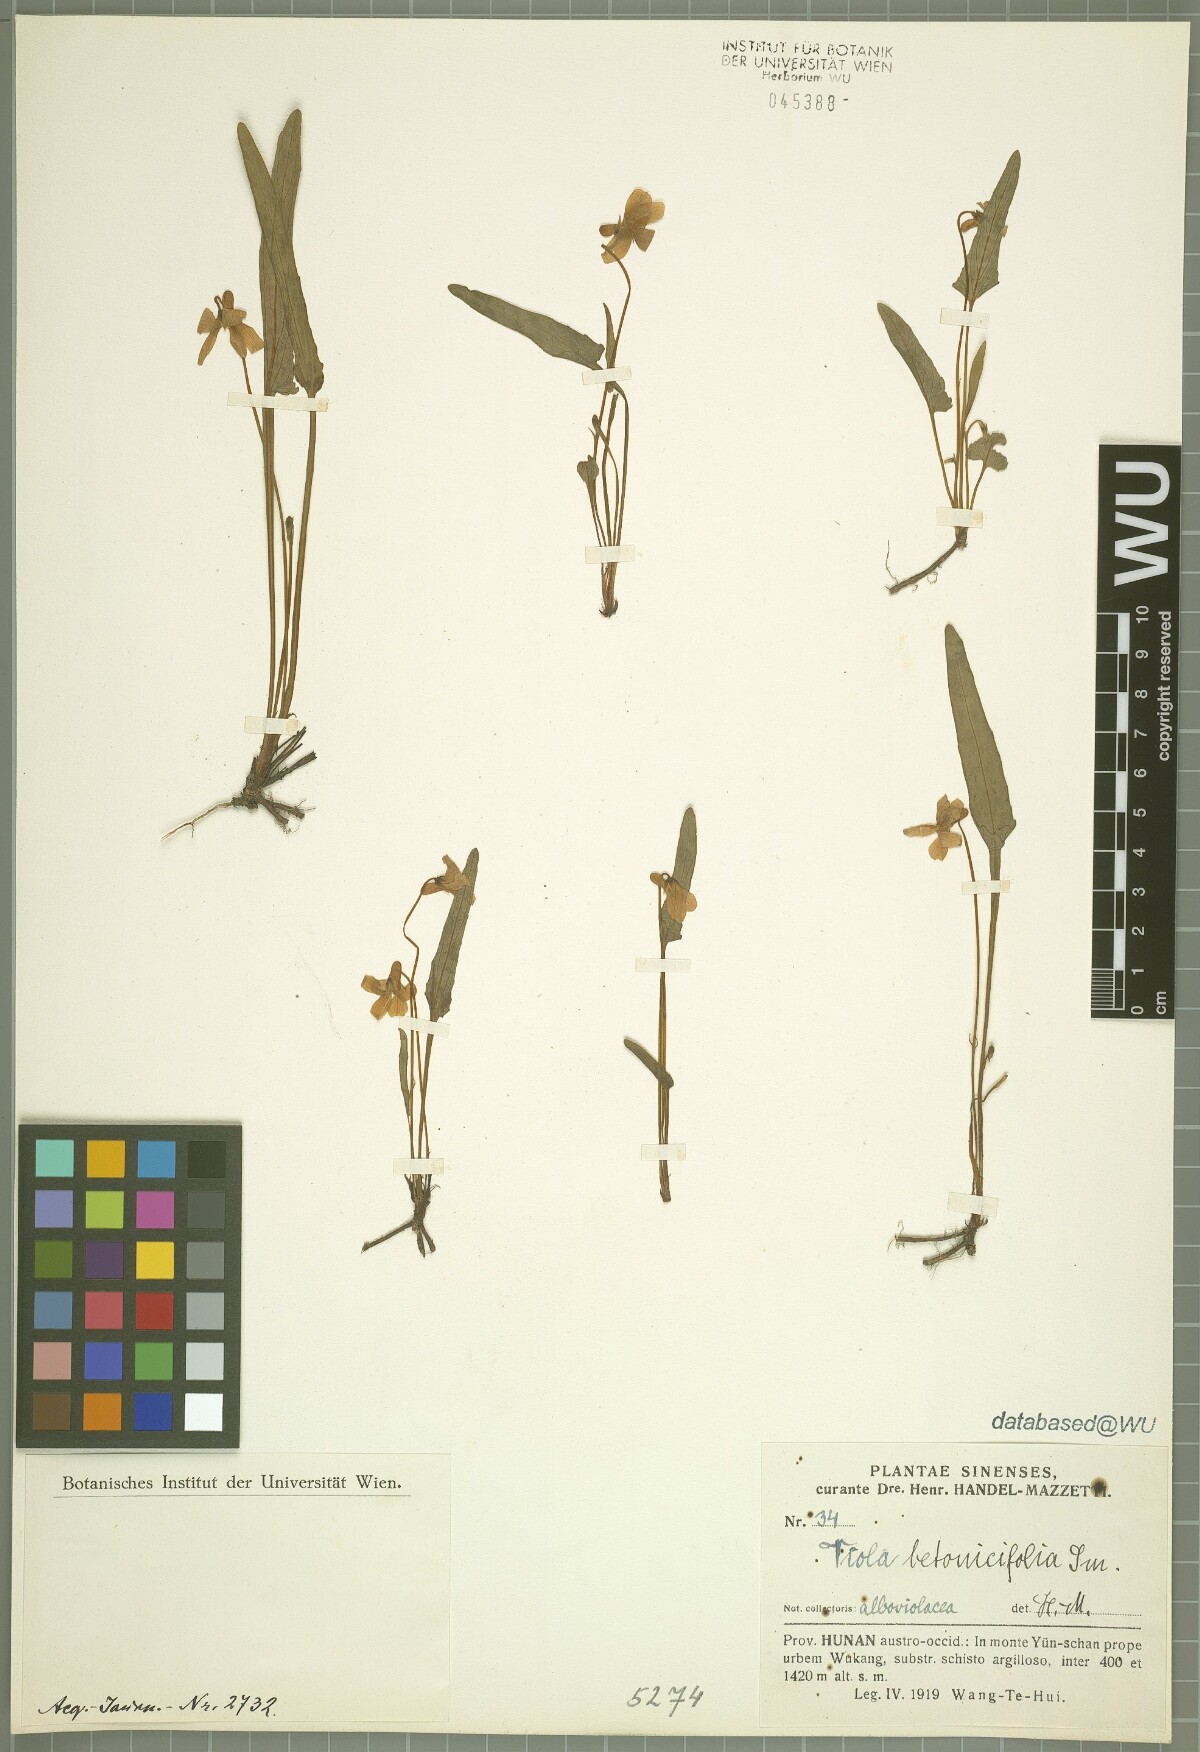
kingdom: Plantae
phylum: Tracheophyta
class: Magnoliopsida
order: Malpighiales
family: Violaceae
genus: Viola
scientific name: Viola betonicifolia
